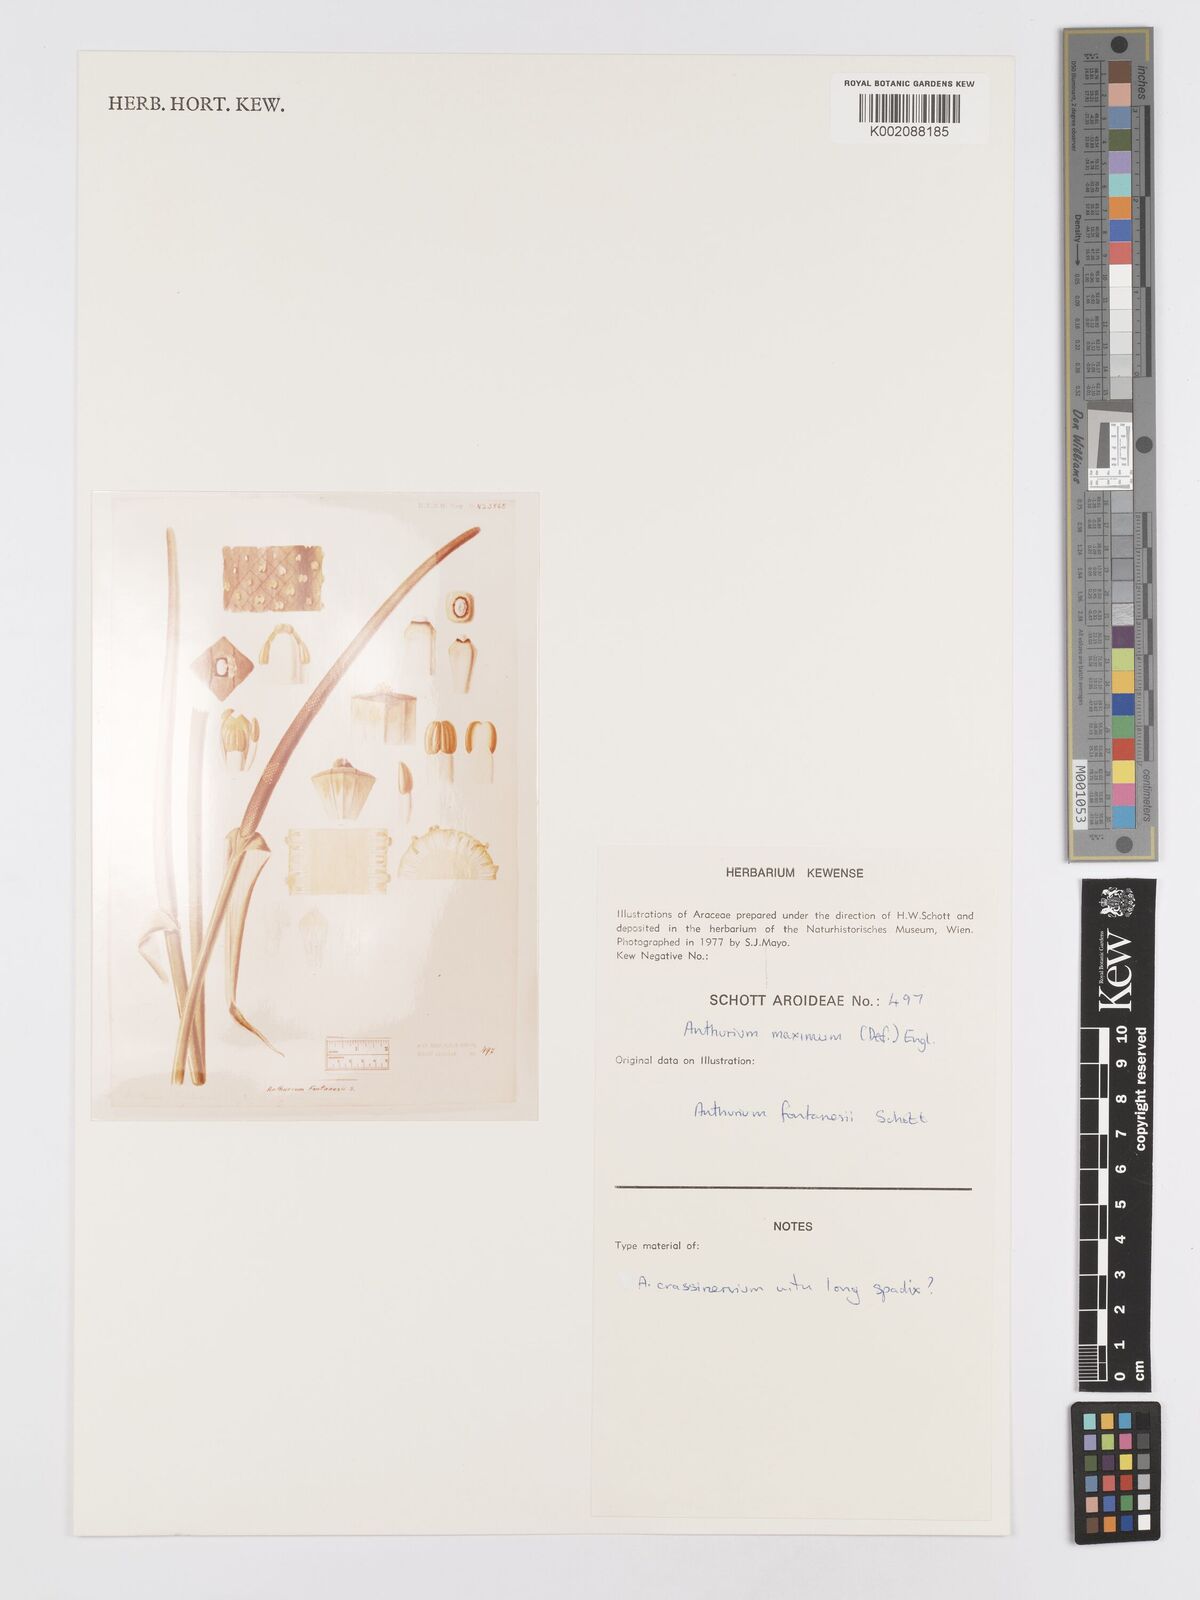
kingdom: Plantae
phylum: Tracheophyta
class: Liliopsida
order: Alismatales
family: Araceae
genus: Anthurium
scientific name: Anthurium maximum
